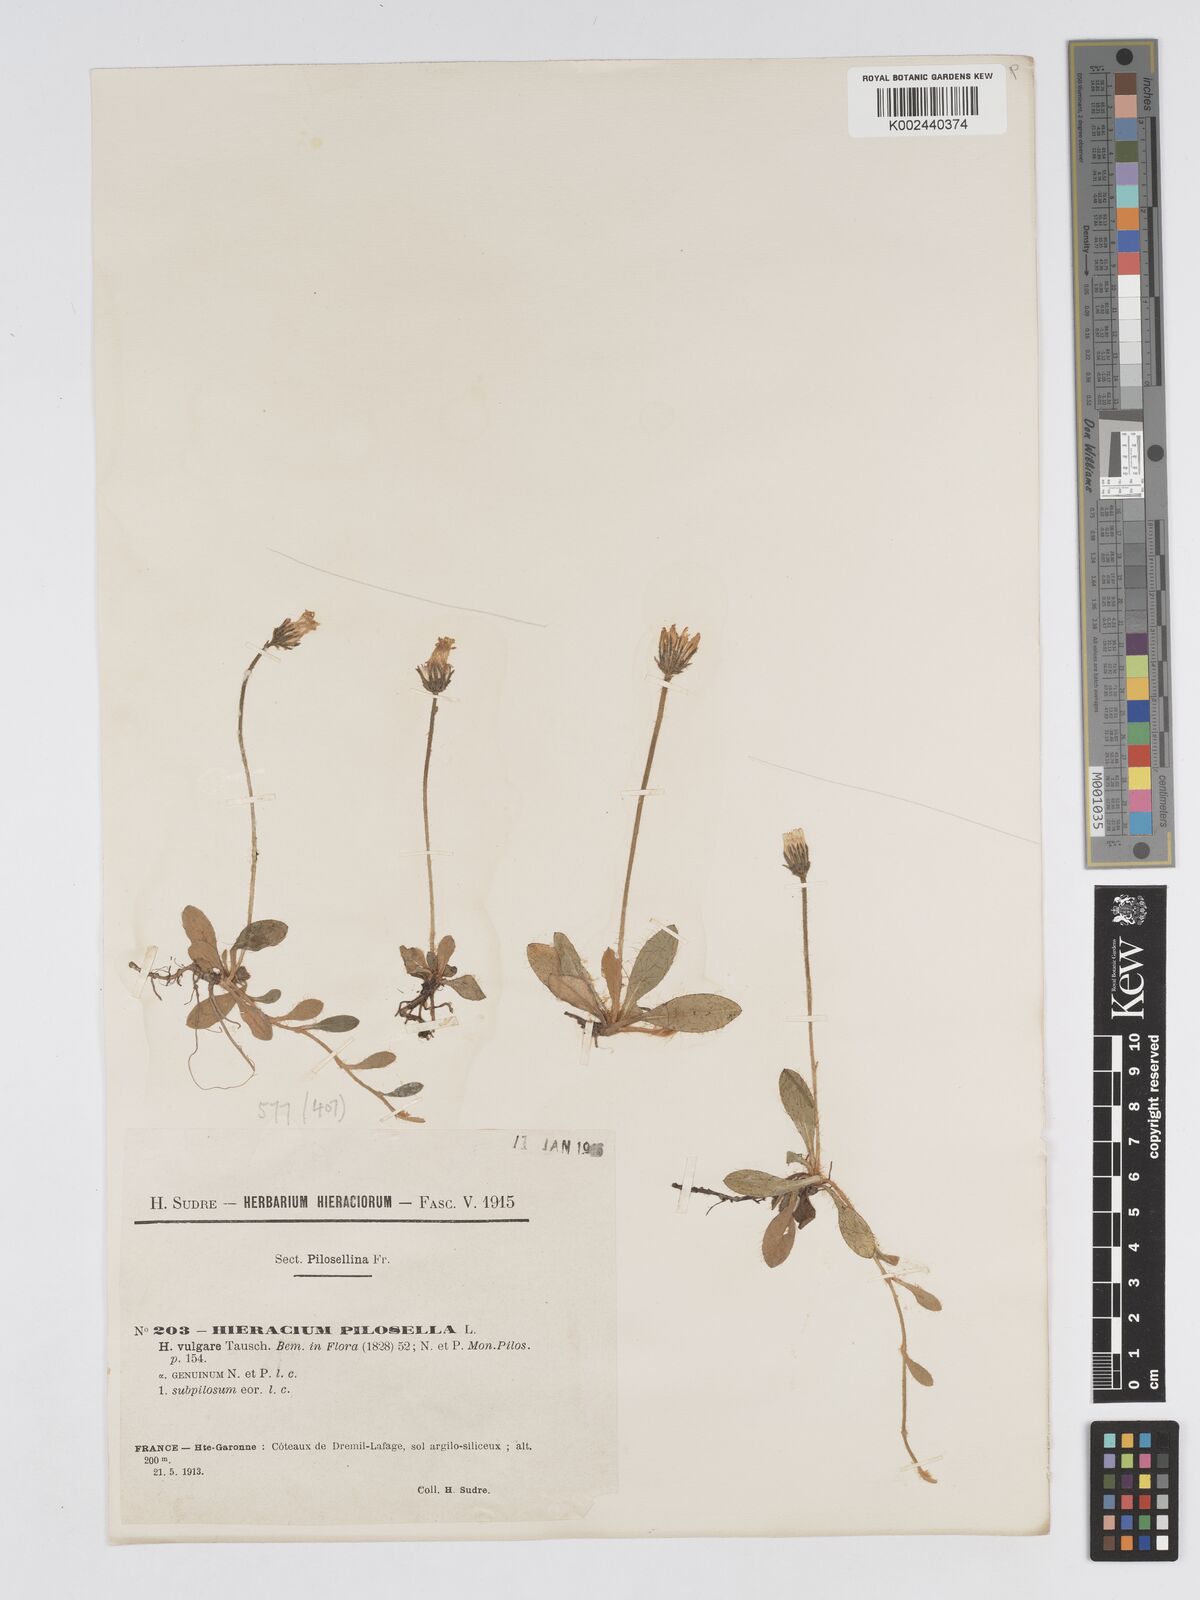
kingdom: Plantae
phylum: Tracheophyta
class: Magnoliopsida
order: Asterales
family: Asteraceae
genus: Pilosella
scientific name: Pilosella officinarum
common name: Mouse-ear hawkweed
